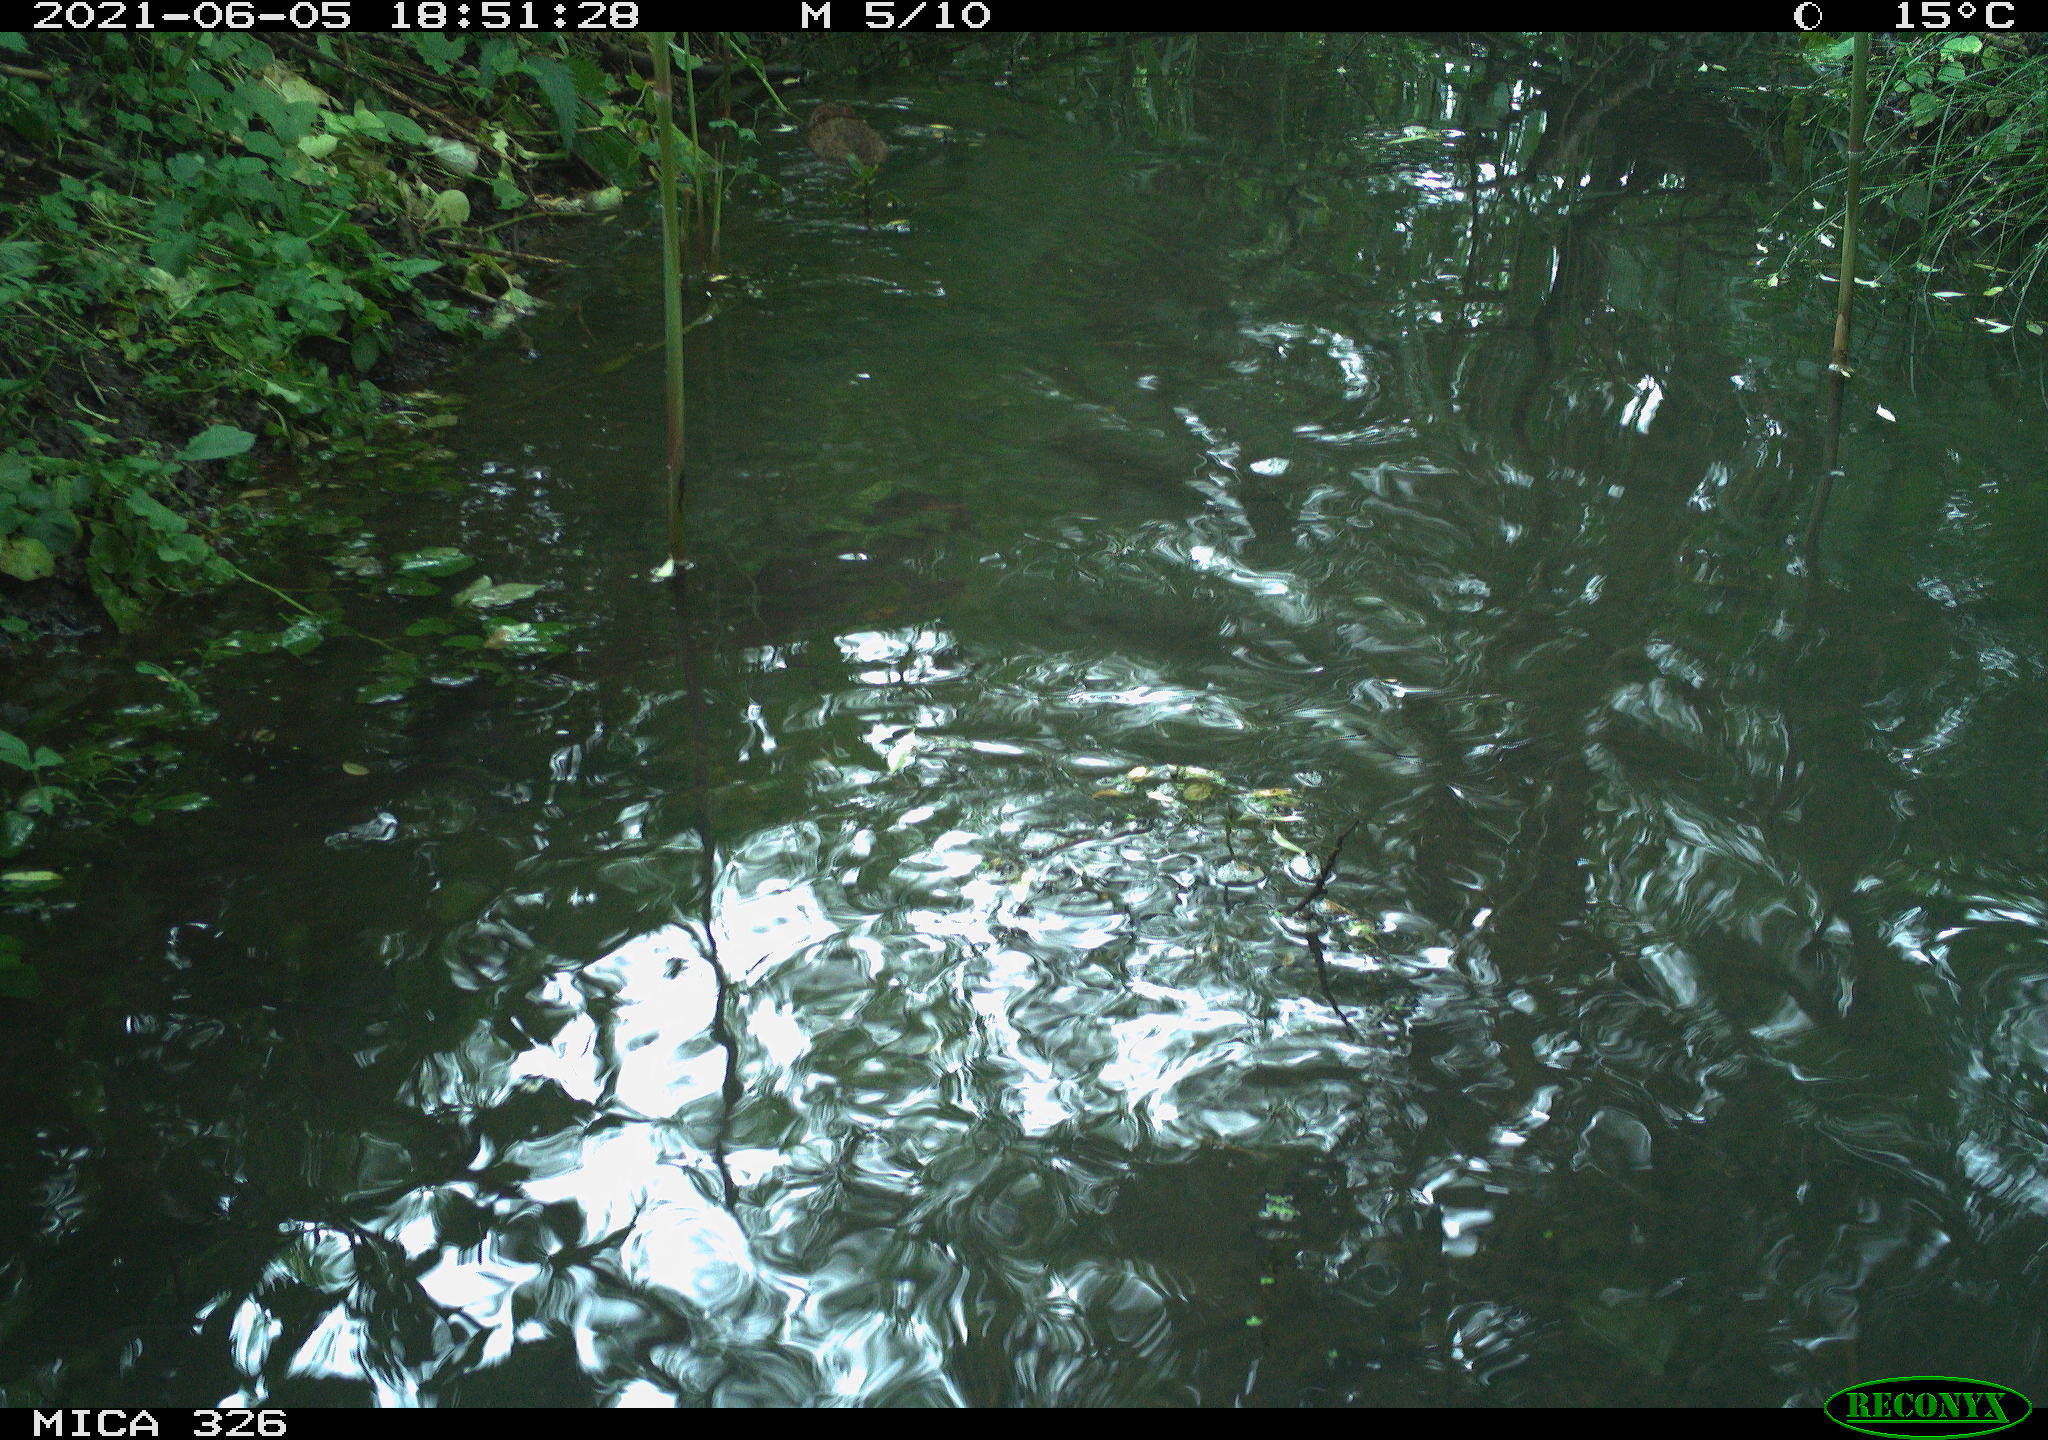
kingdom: Animalia
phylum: Chordata
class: Mammalia
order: Rodentia
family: Muridae
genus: Rattus
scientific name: Rattus norvegicus
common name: Brown rat
